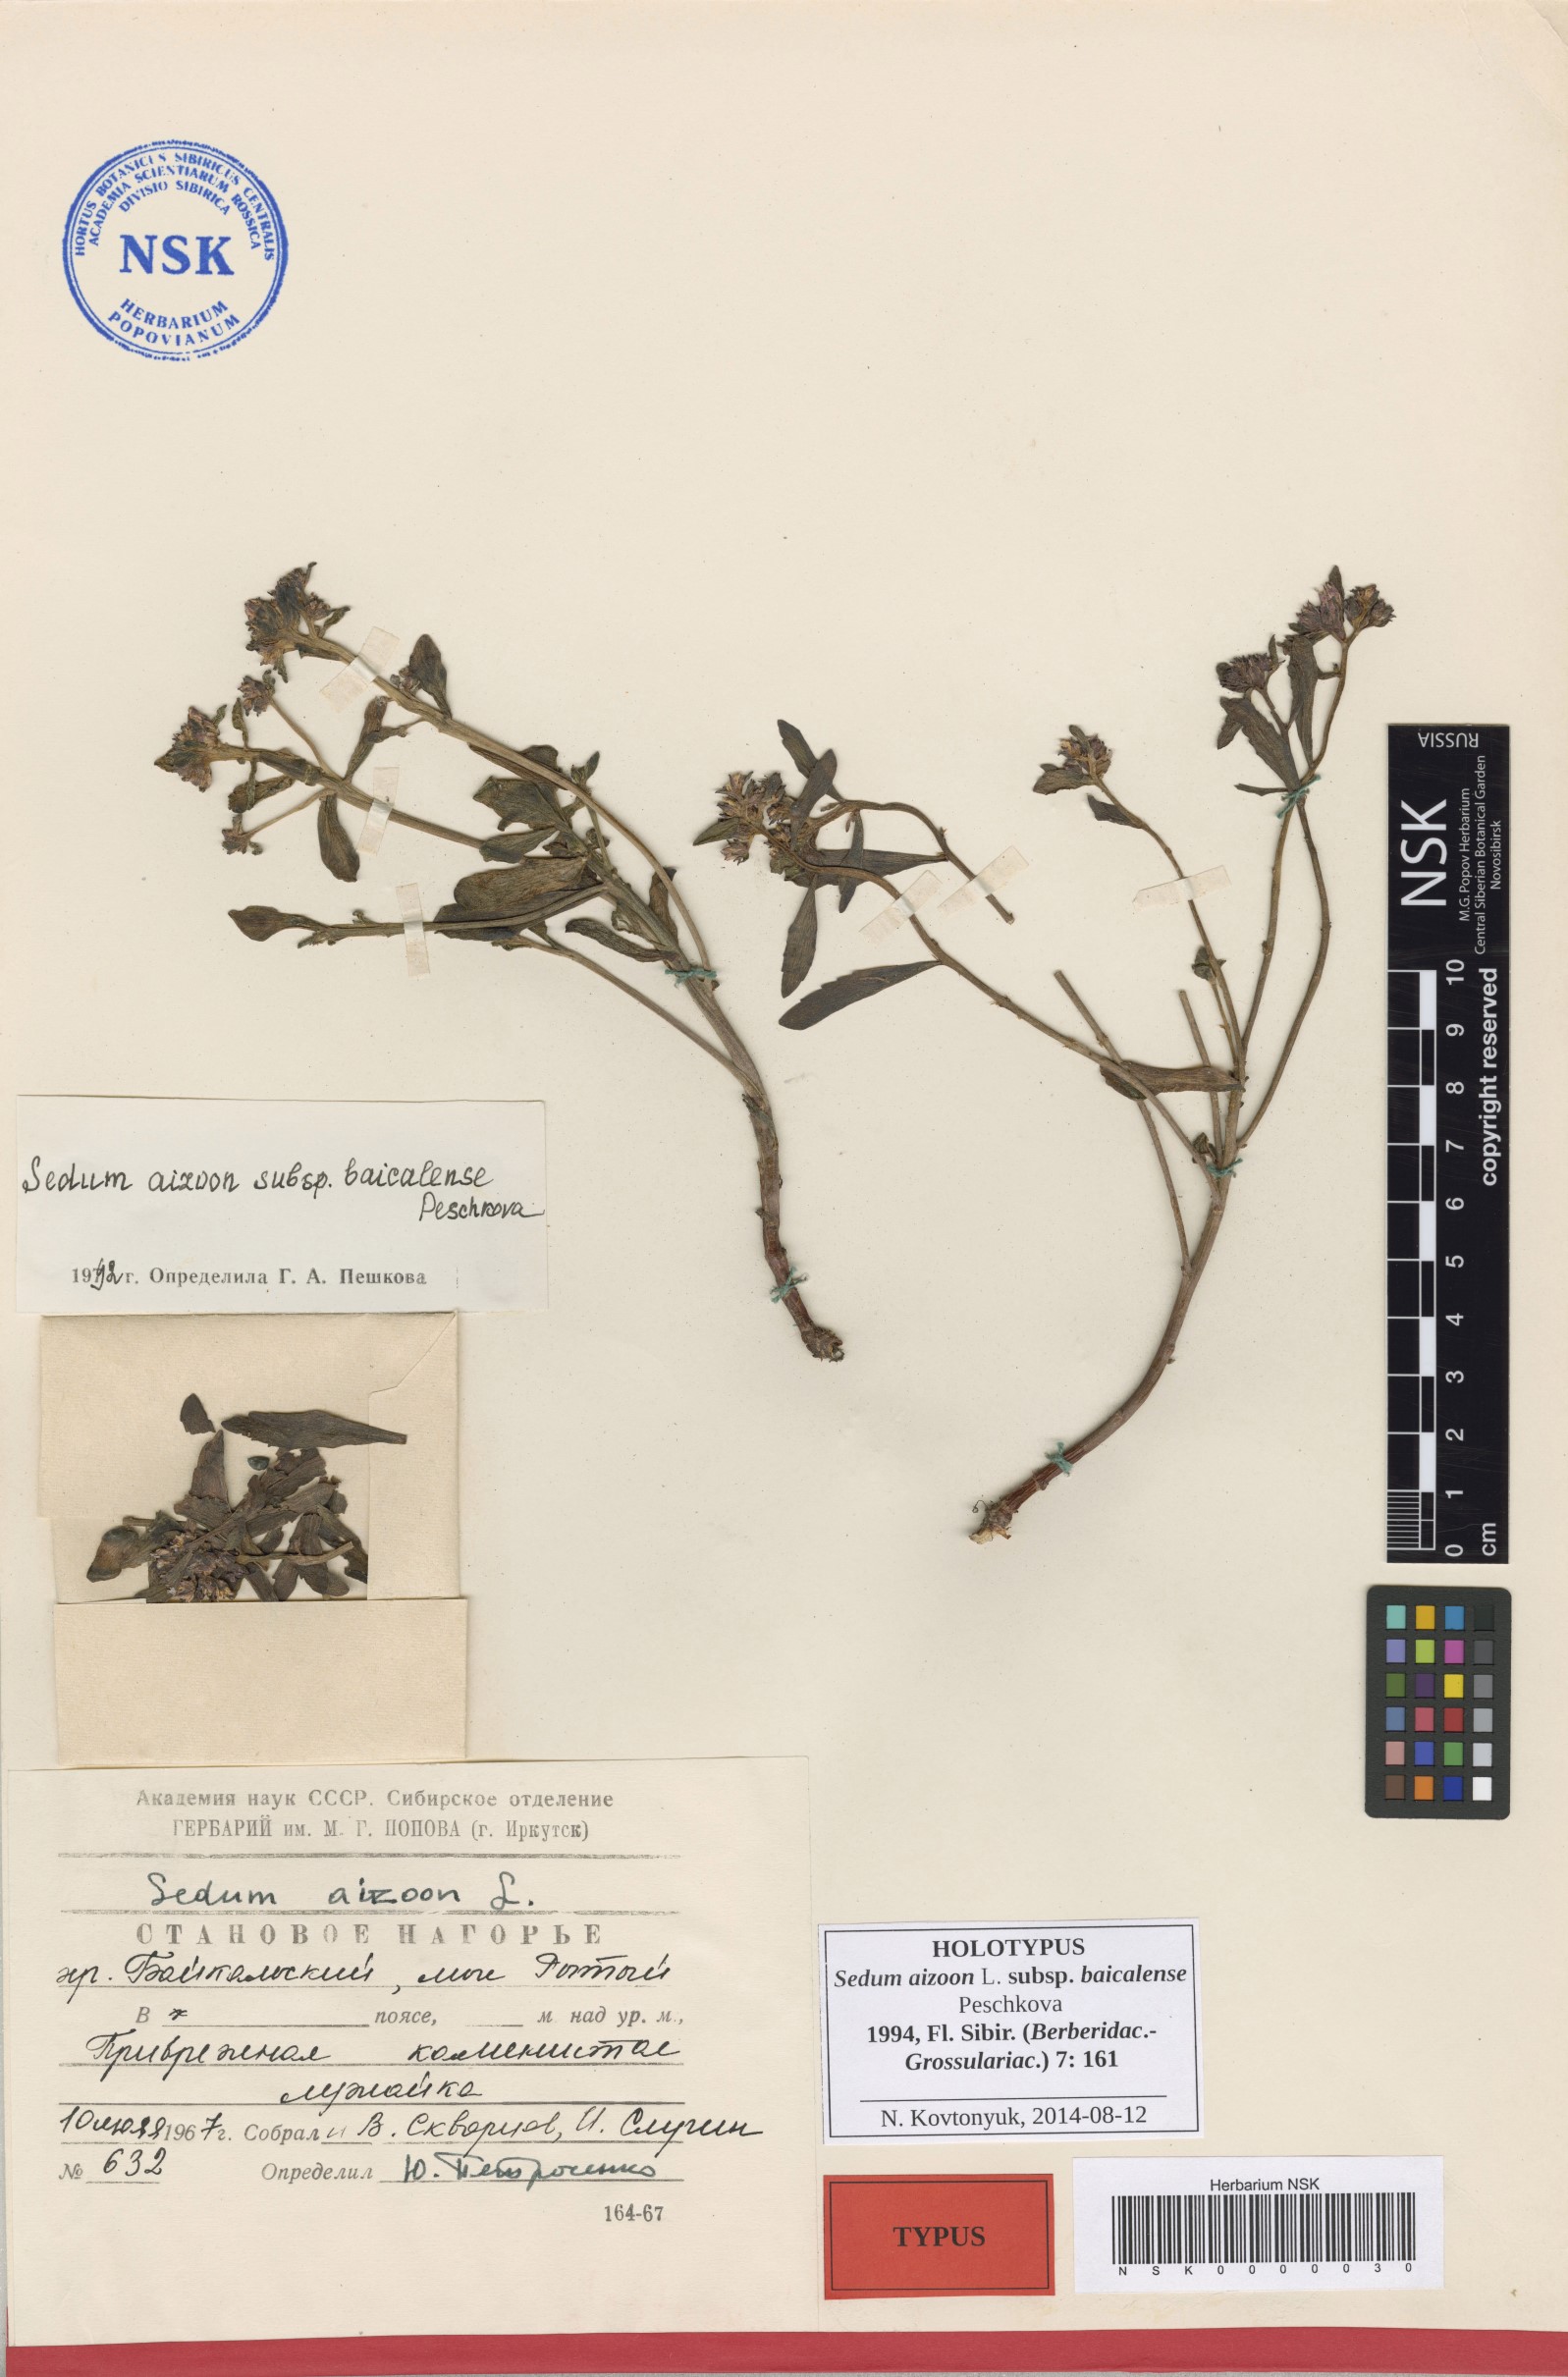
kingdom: Plantae
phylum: Tracheophyta
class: Magnoliopsida
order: Saxifragales
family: Crassulaceae
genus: Phedimus
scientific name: Phedimus aizoon
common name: Orpin aizoon
